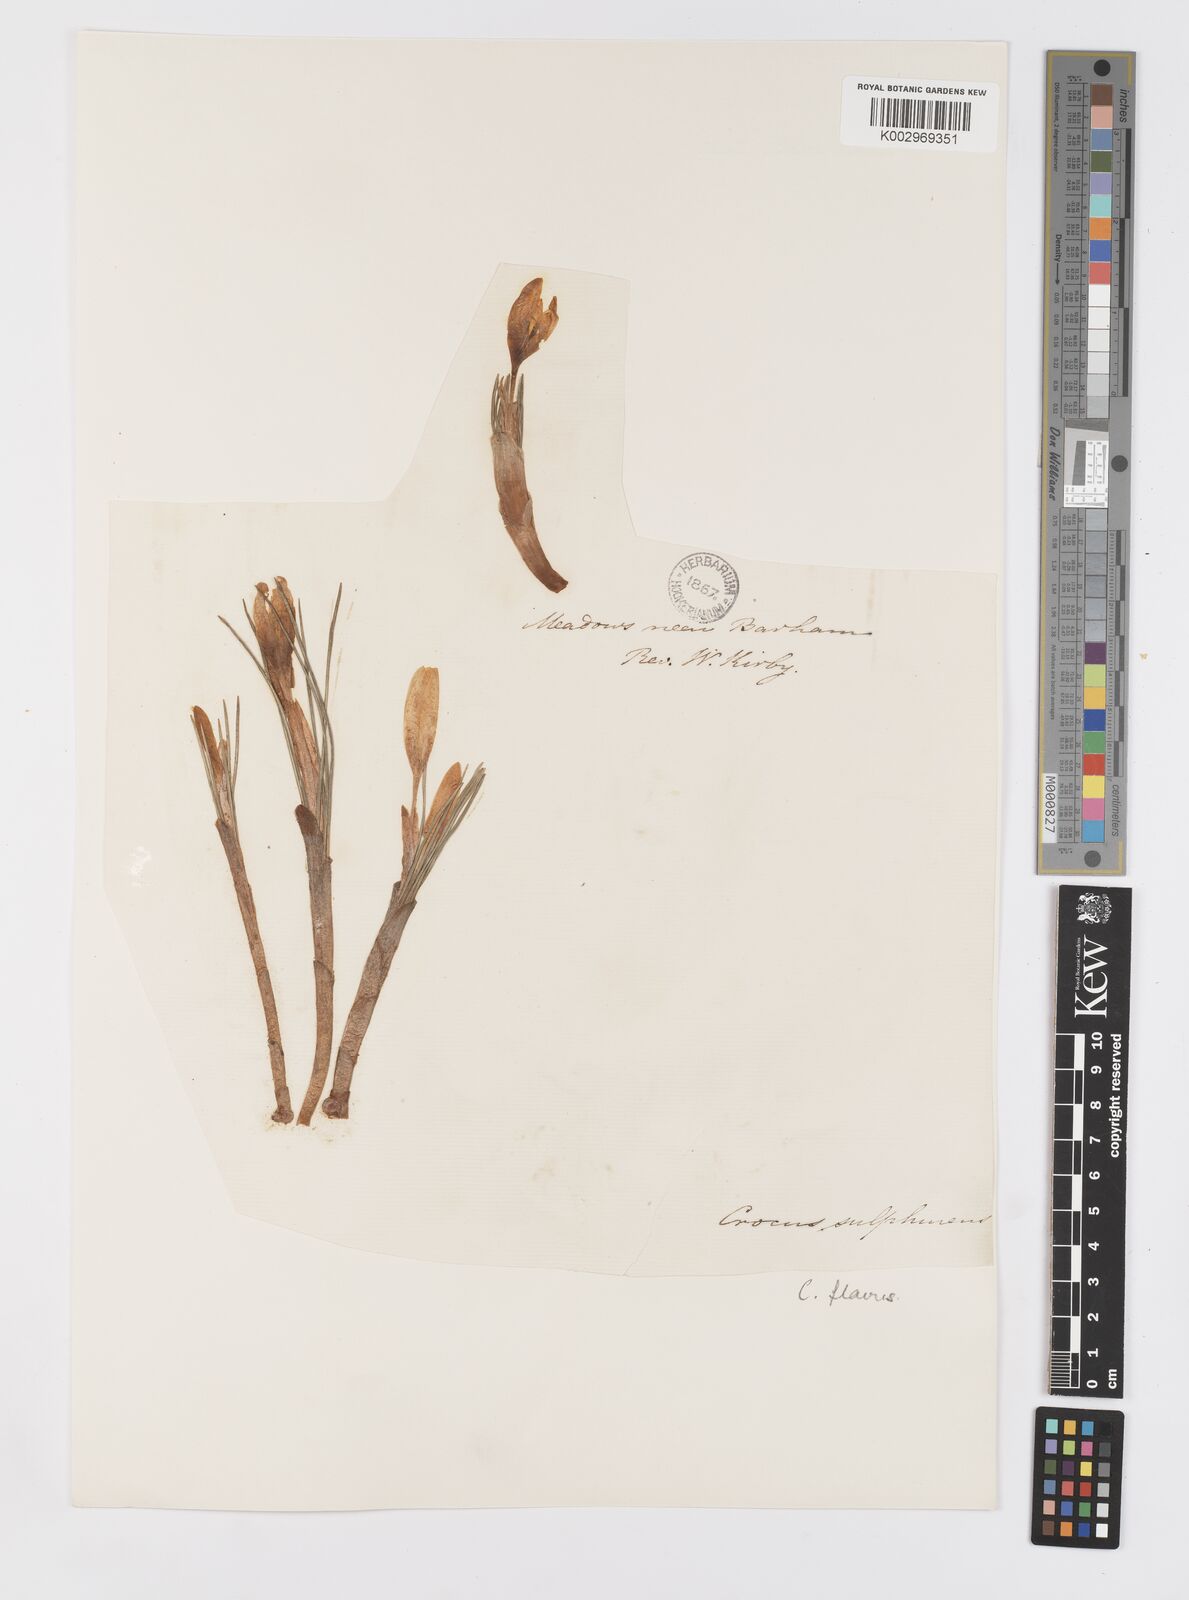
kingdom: Plantae
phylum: Tracheophyta
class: Liliopsida
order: Asparagales
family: Iridaceae
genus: Crocus
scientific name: Crocus flavus
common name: Yellow crocus
